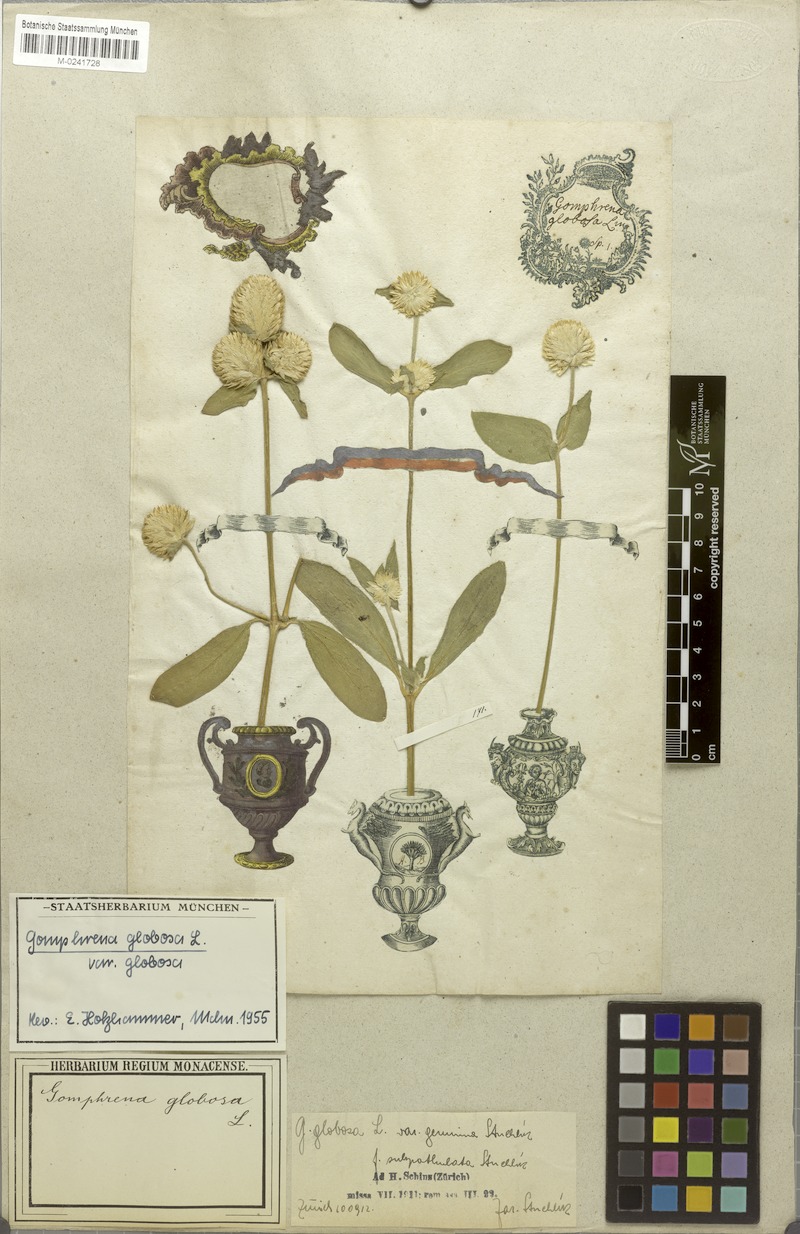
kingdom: Plantae
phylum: Tracheophyta
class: Magnoliopsida
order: Caryophyllales
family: Amaranthaceae
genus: Gomphrena
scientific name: Gomphrena globosa
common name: Common globe amaranth
